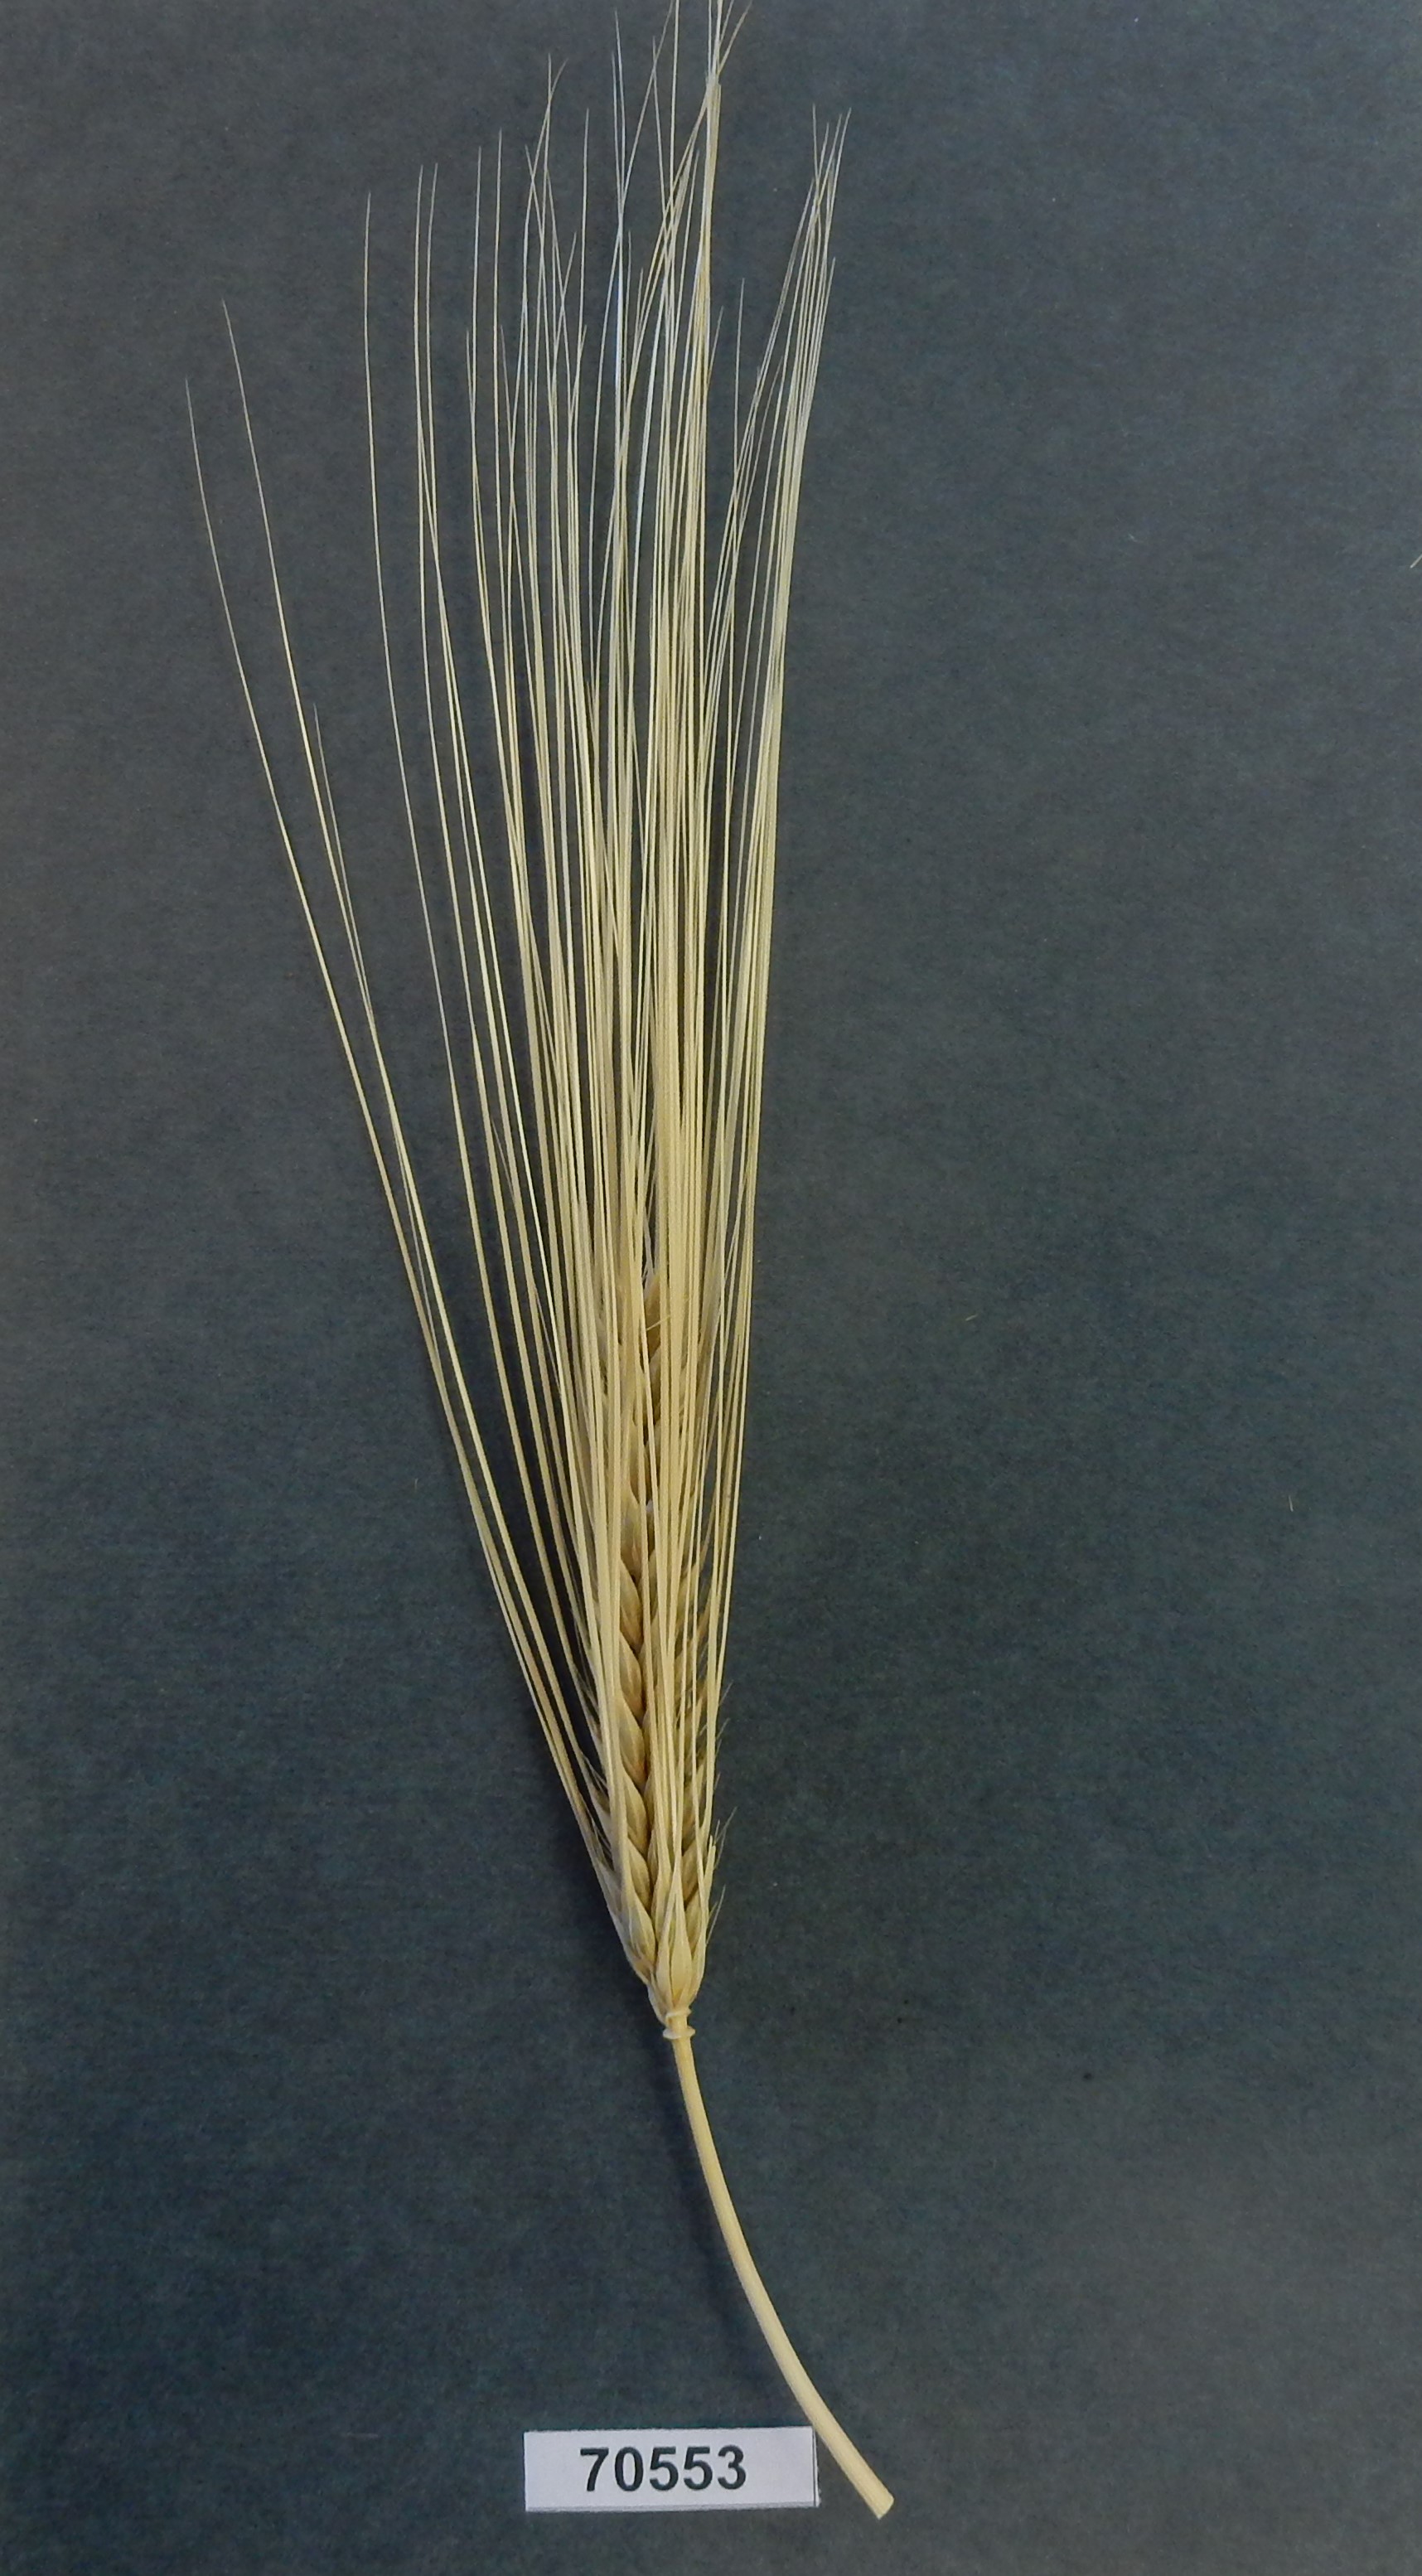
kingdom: Plantae
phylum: Tracheophyta
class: Liliopsida
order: Poales
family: Poaceae
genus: Hordeum
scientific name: Hordeum
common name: Barley
